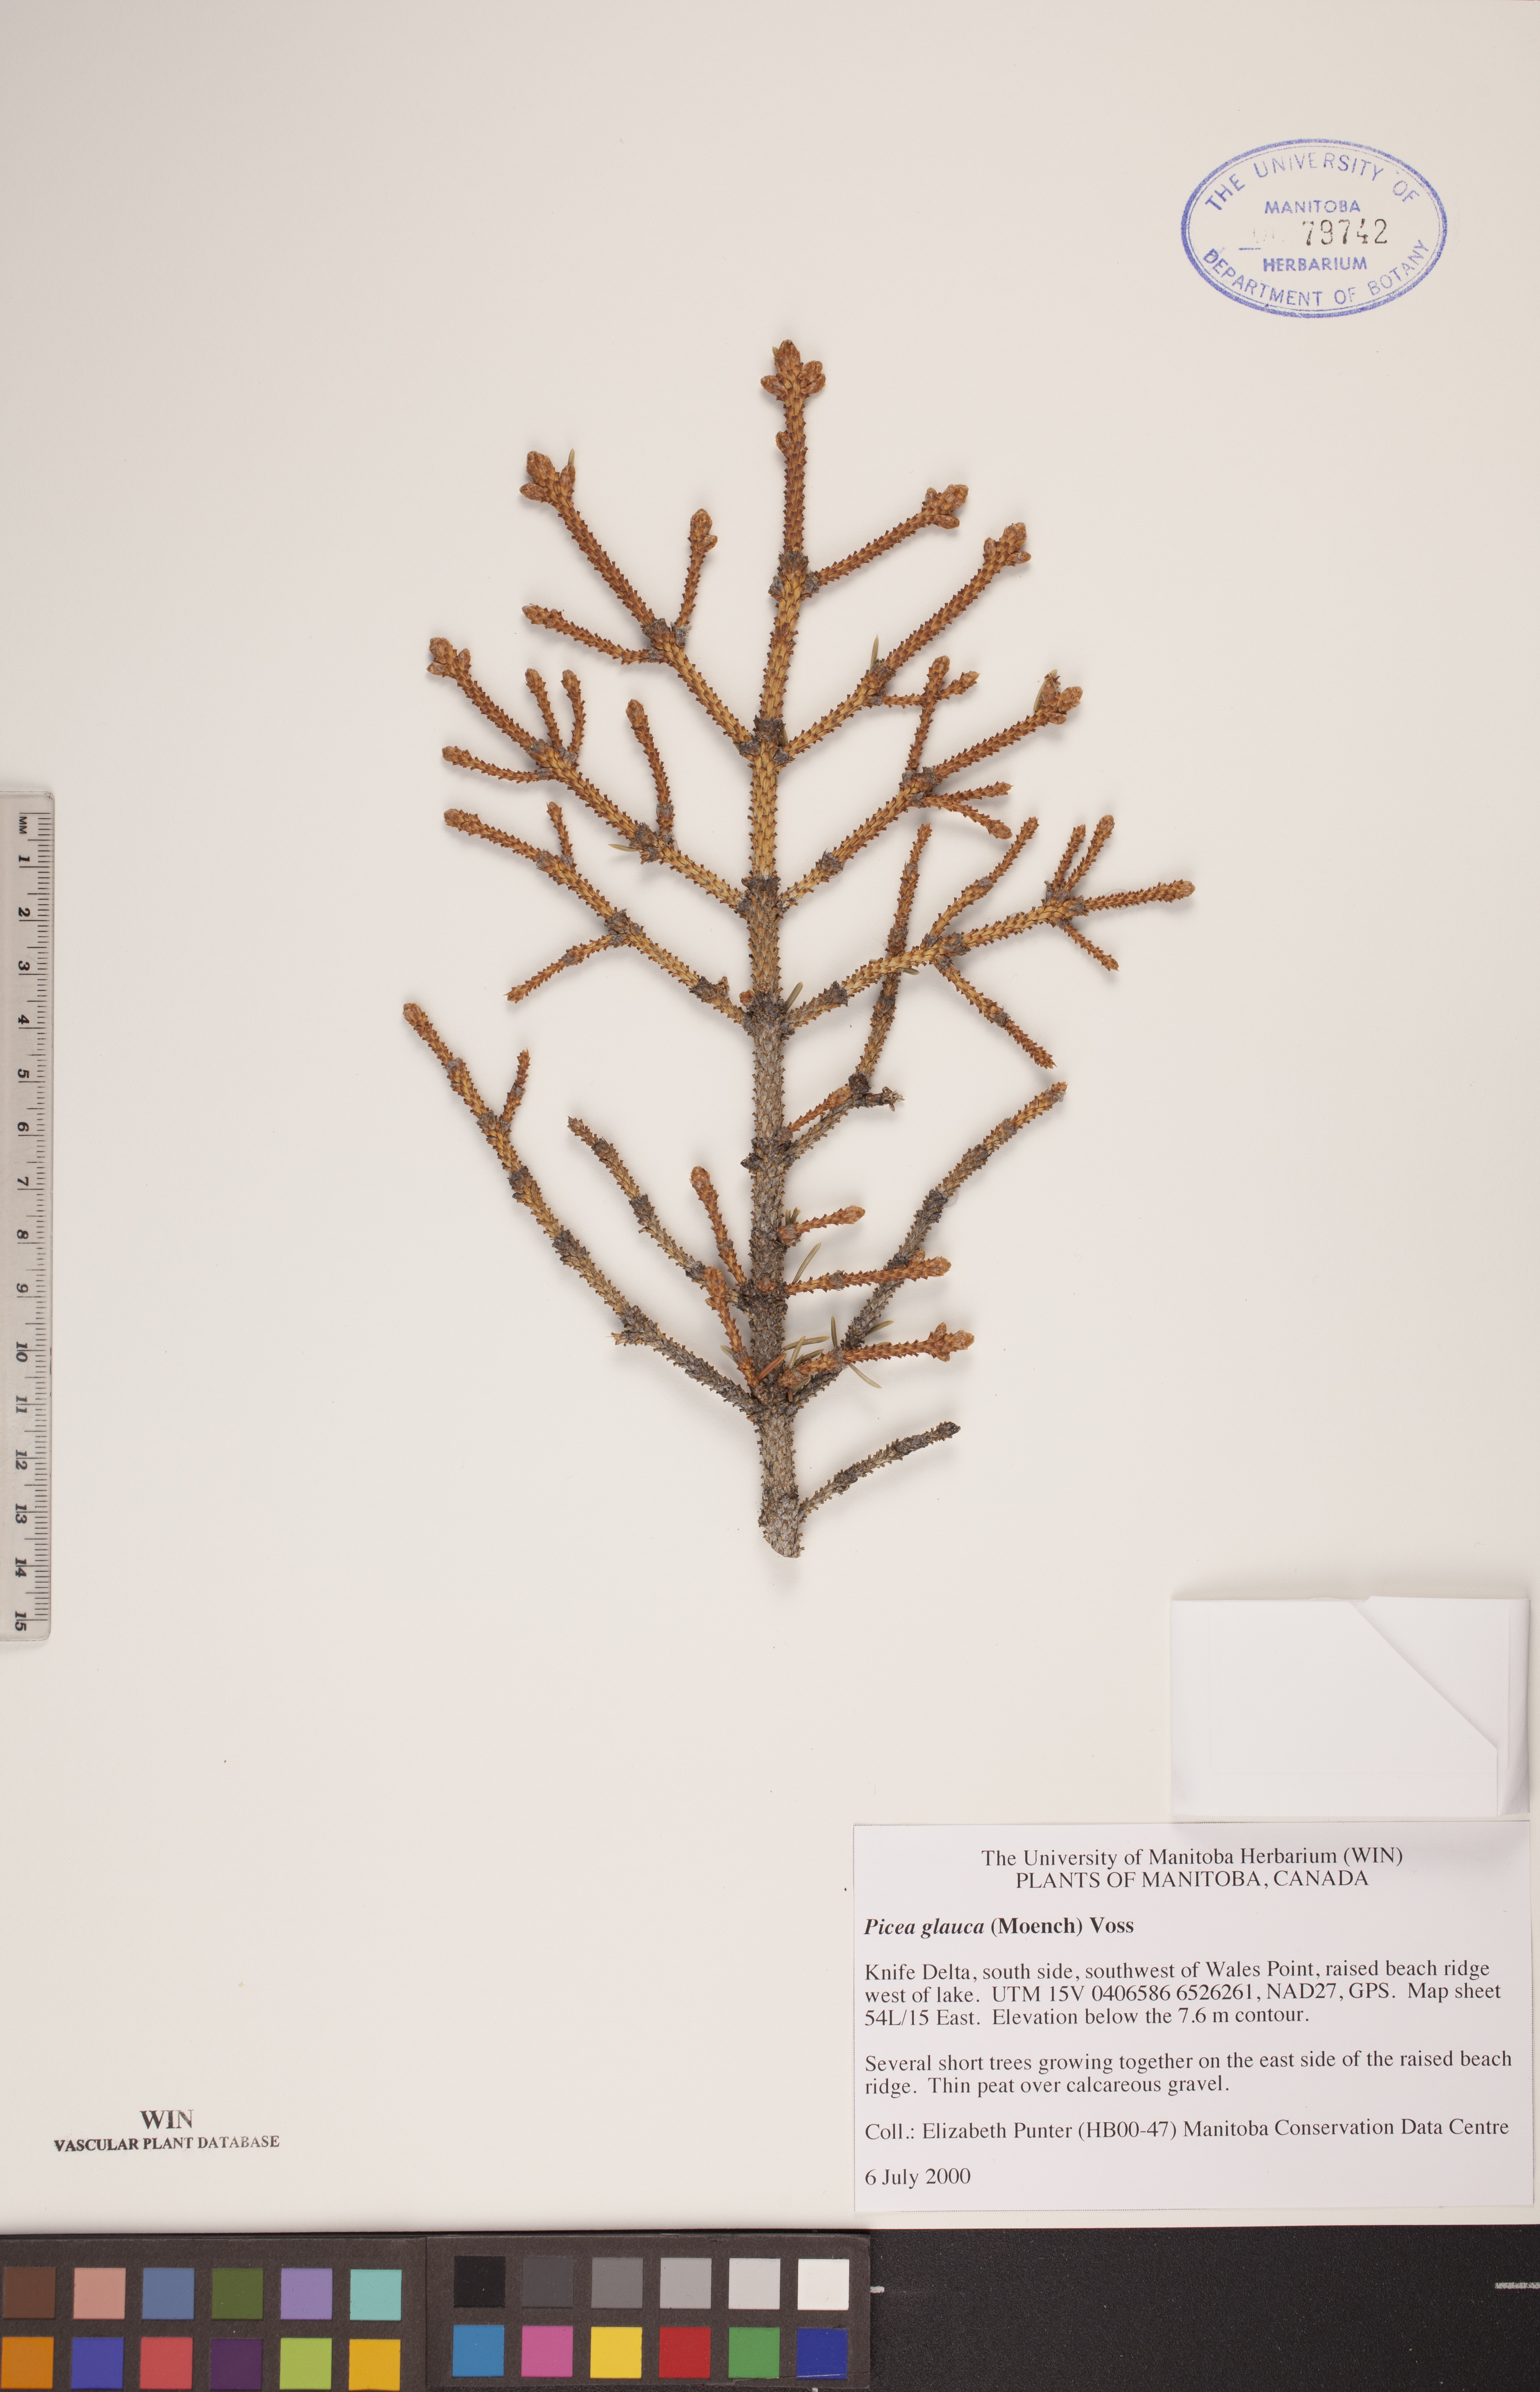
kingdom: Plantae
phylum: Tracheophyta
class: Pinopsida
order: Pinales
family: Pinaceae
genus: Picea
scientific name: Picea glauca
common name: White spruce
